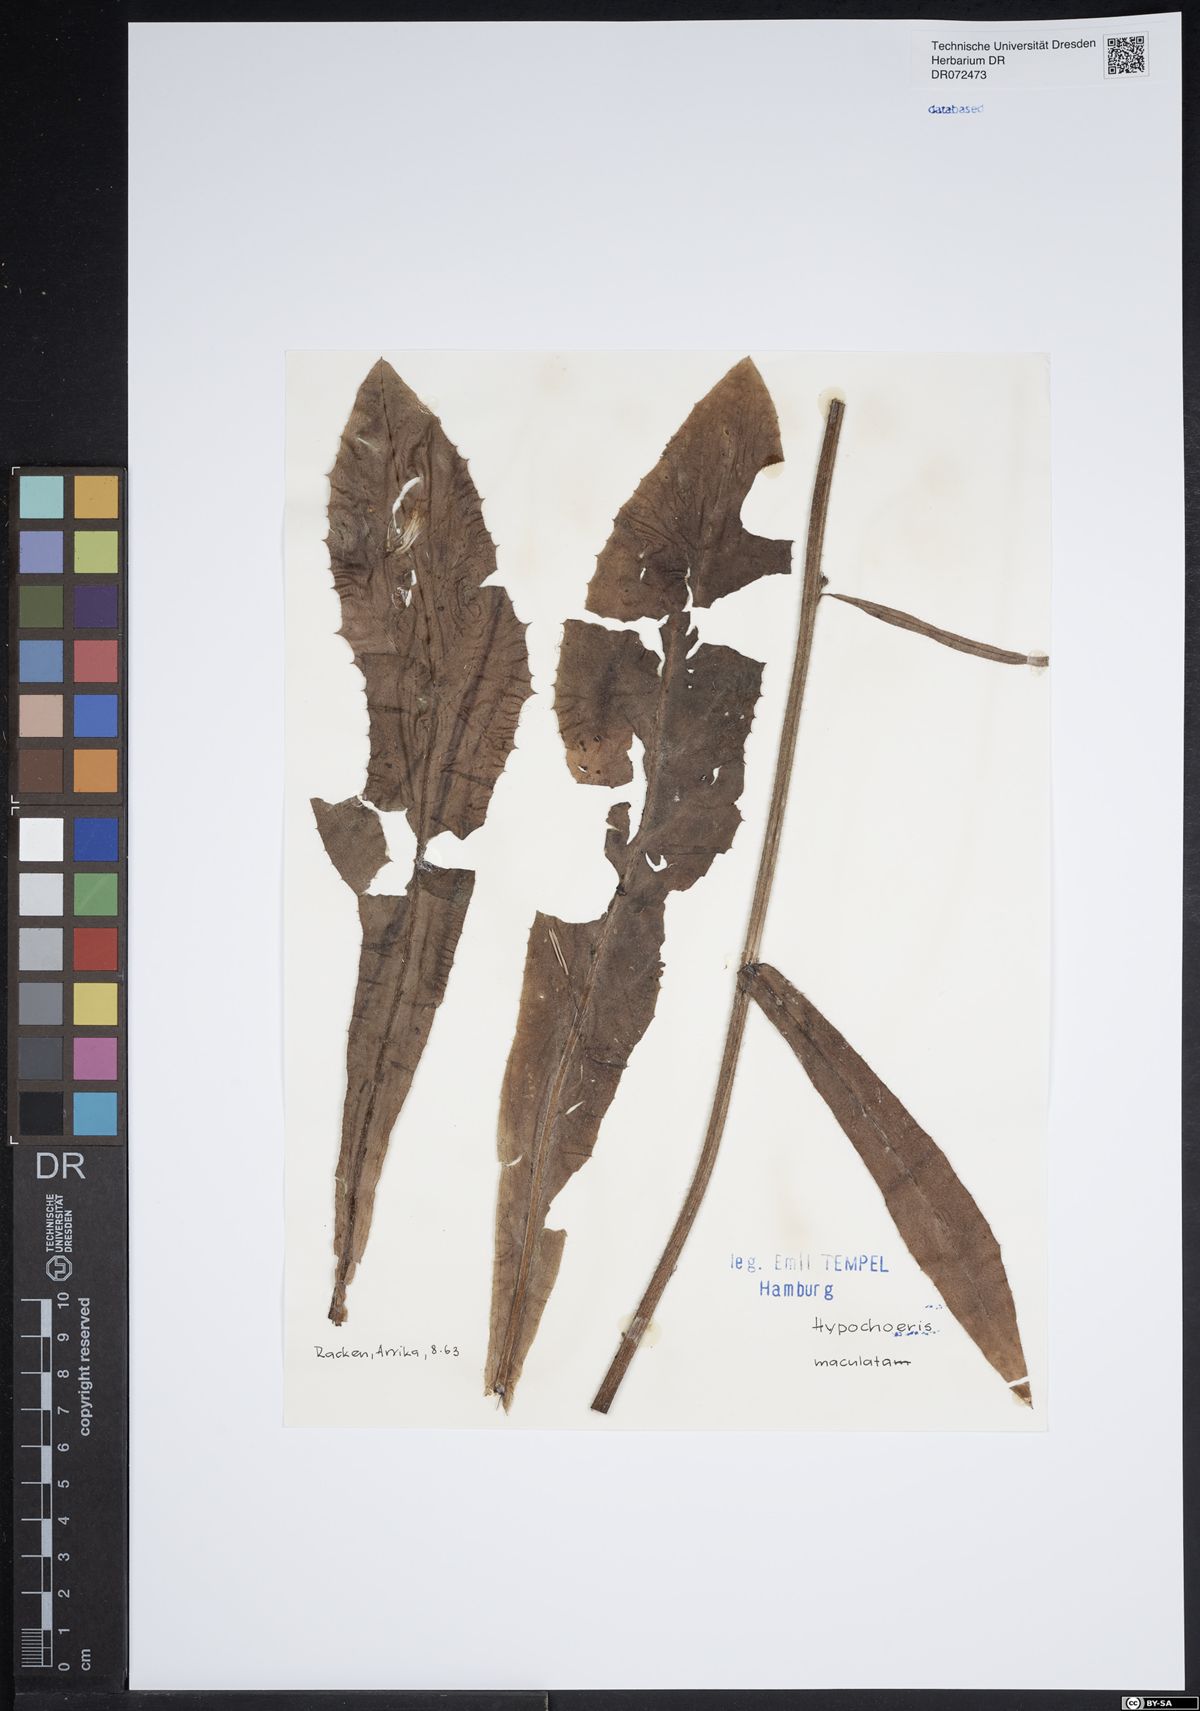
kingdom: Plantae
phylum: Tracheophyta
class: Magnoliopsida
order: Asterales
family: Asteraceae
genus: Trommsdorffia
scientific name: Trommsdorffia maculata
